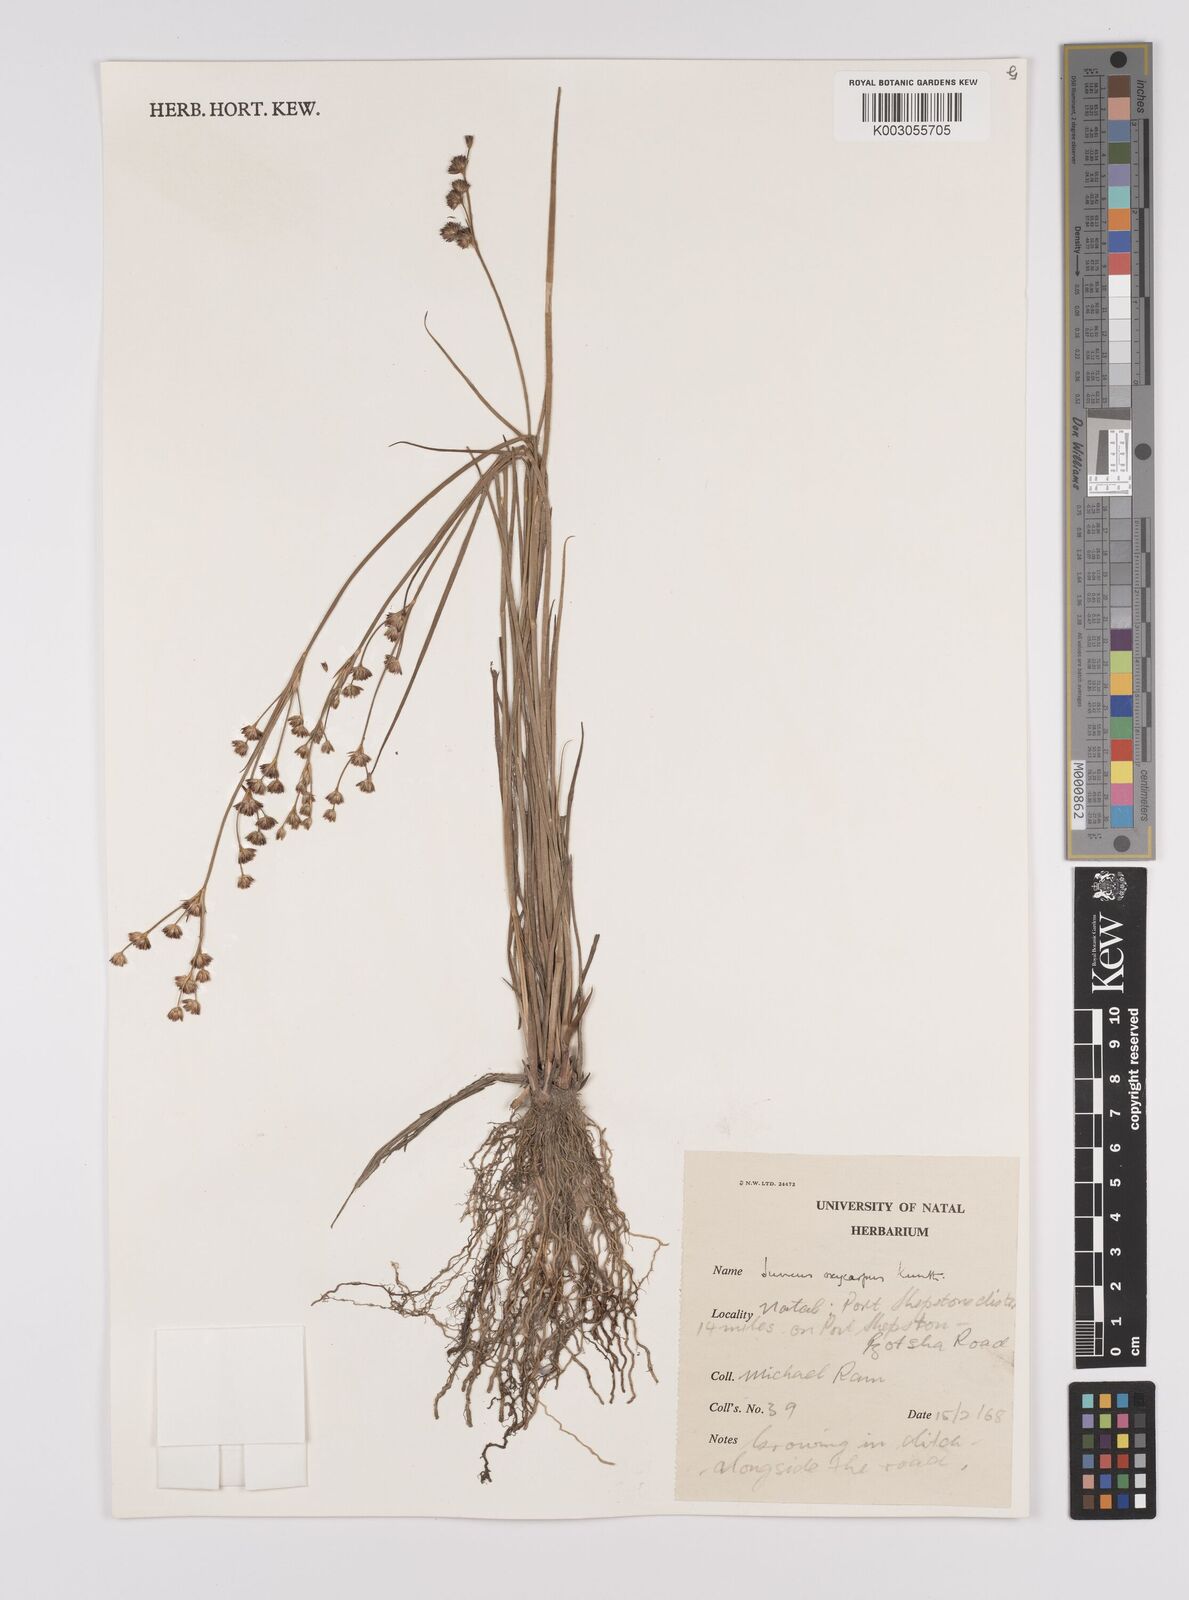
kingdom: Plantae
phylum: Tracheophyta
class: Liliopsida
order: Poales
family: Juncaceae
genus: Juncus
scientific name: Juncus oxycarpus
